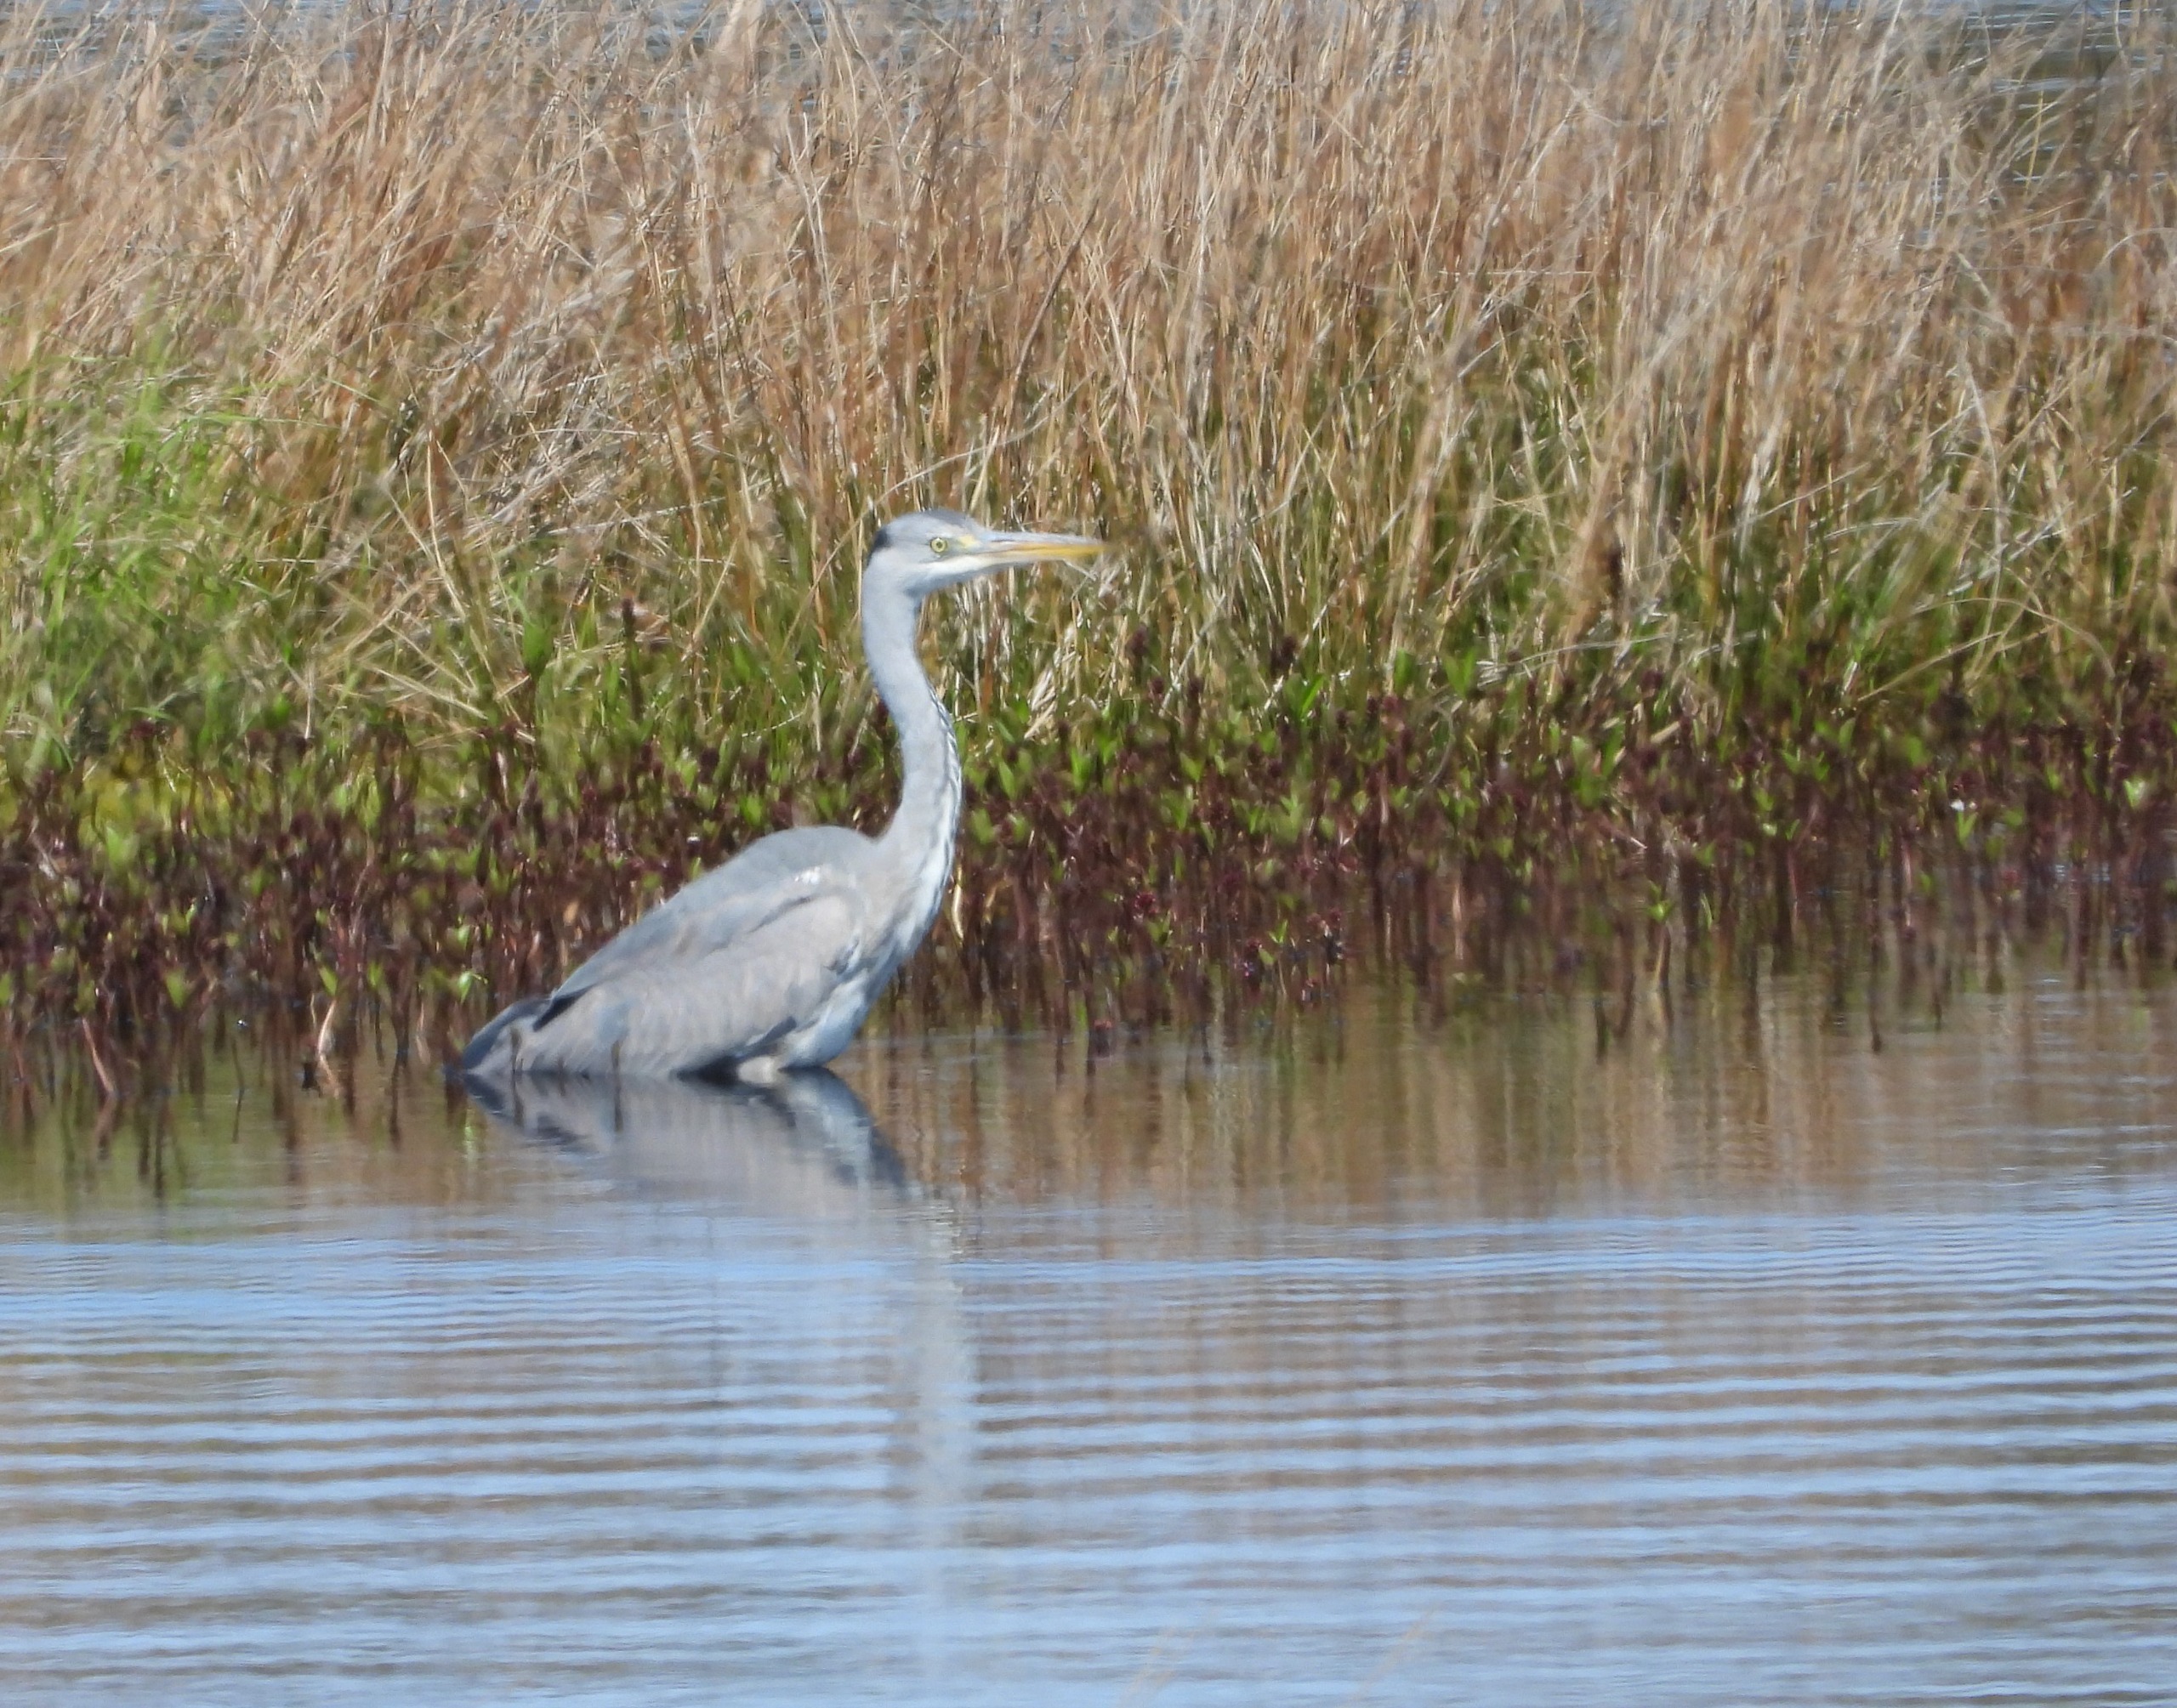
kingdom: Animalia
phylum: Chordata
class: Aves
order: Pelecaniformes
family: Ardeidae
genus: Ardea
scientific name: Ardea cinerea
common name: Fiskehejre
